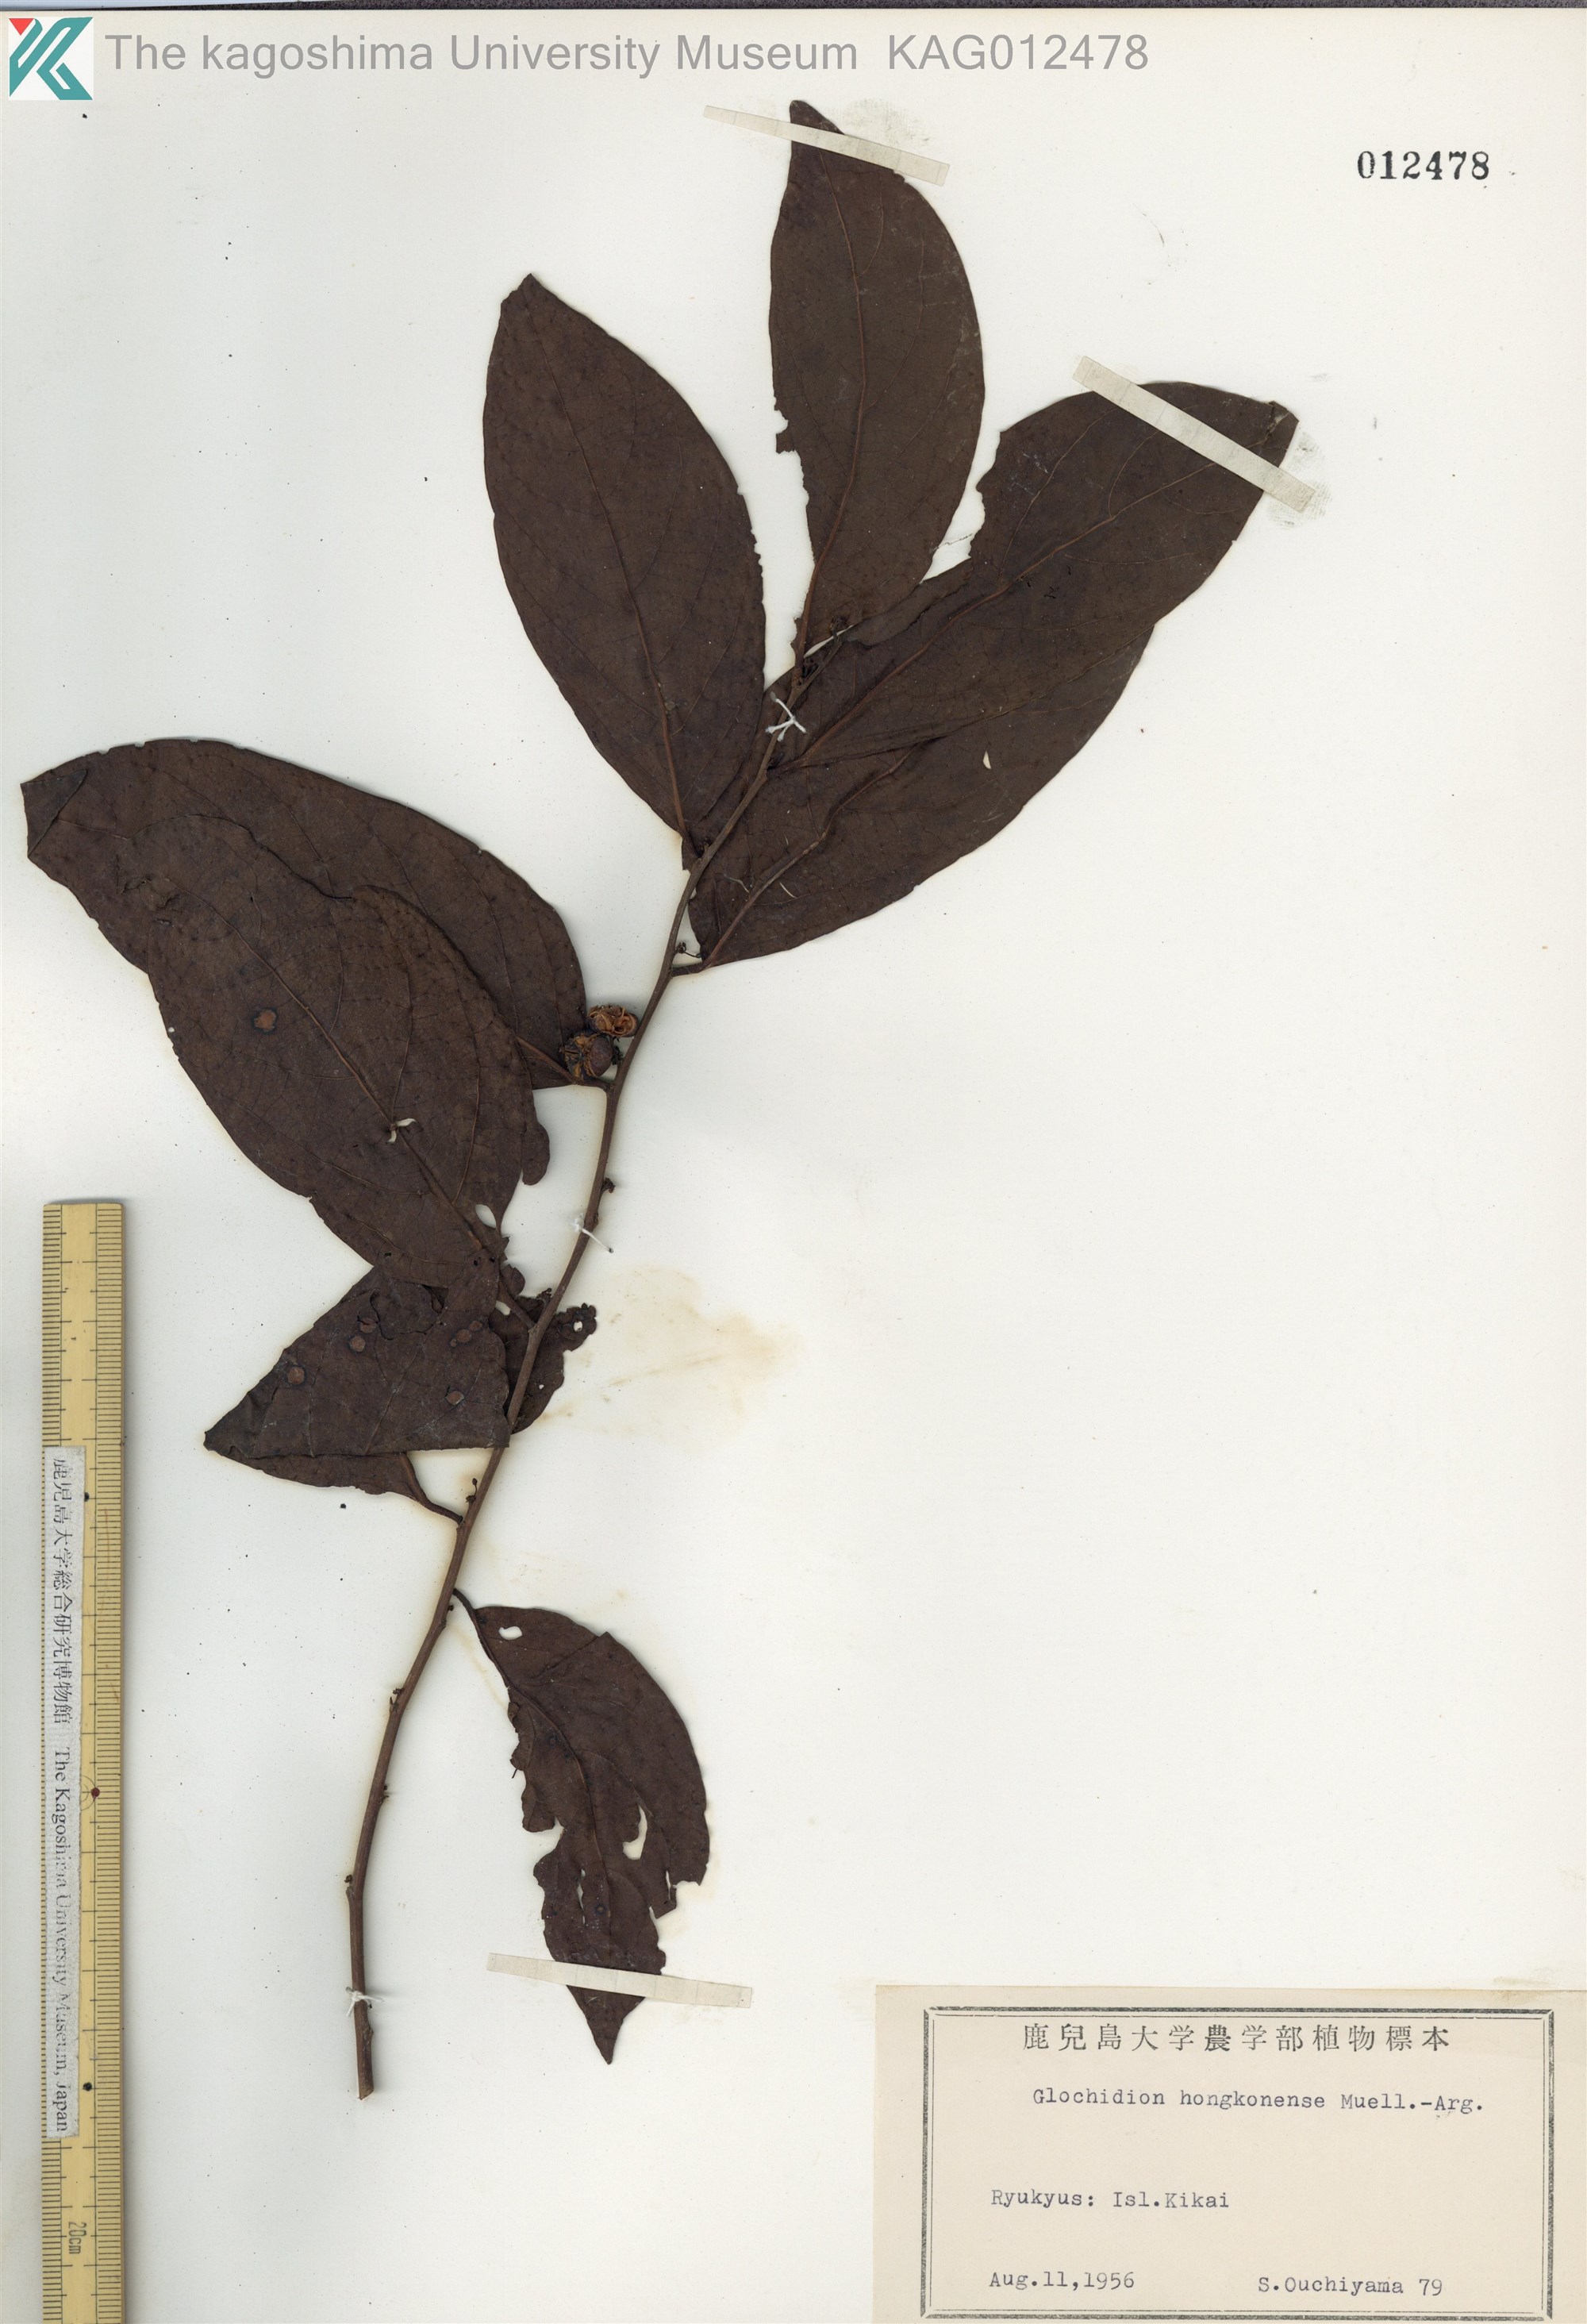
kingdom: Plantae
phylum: Tracheophyta
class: Magnoliopsida
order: Malpighiales
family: Phyllanthaceae
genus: Glochidion
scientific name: Glochidion zeylanicum
